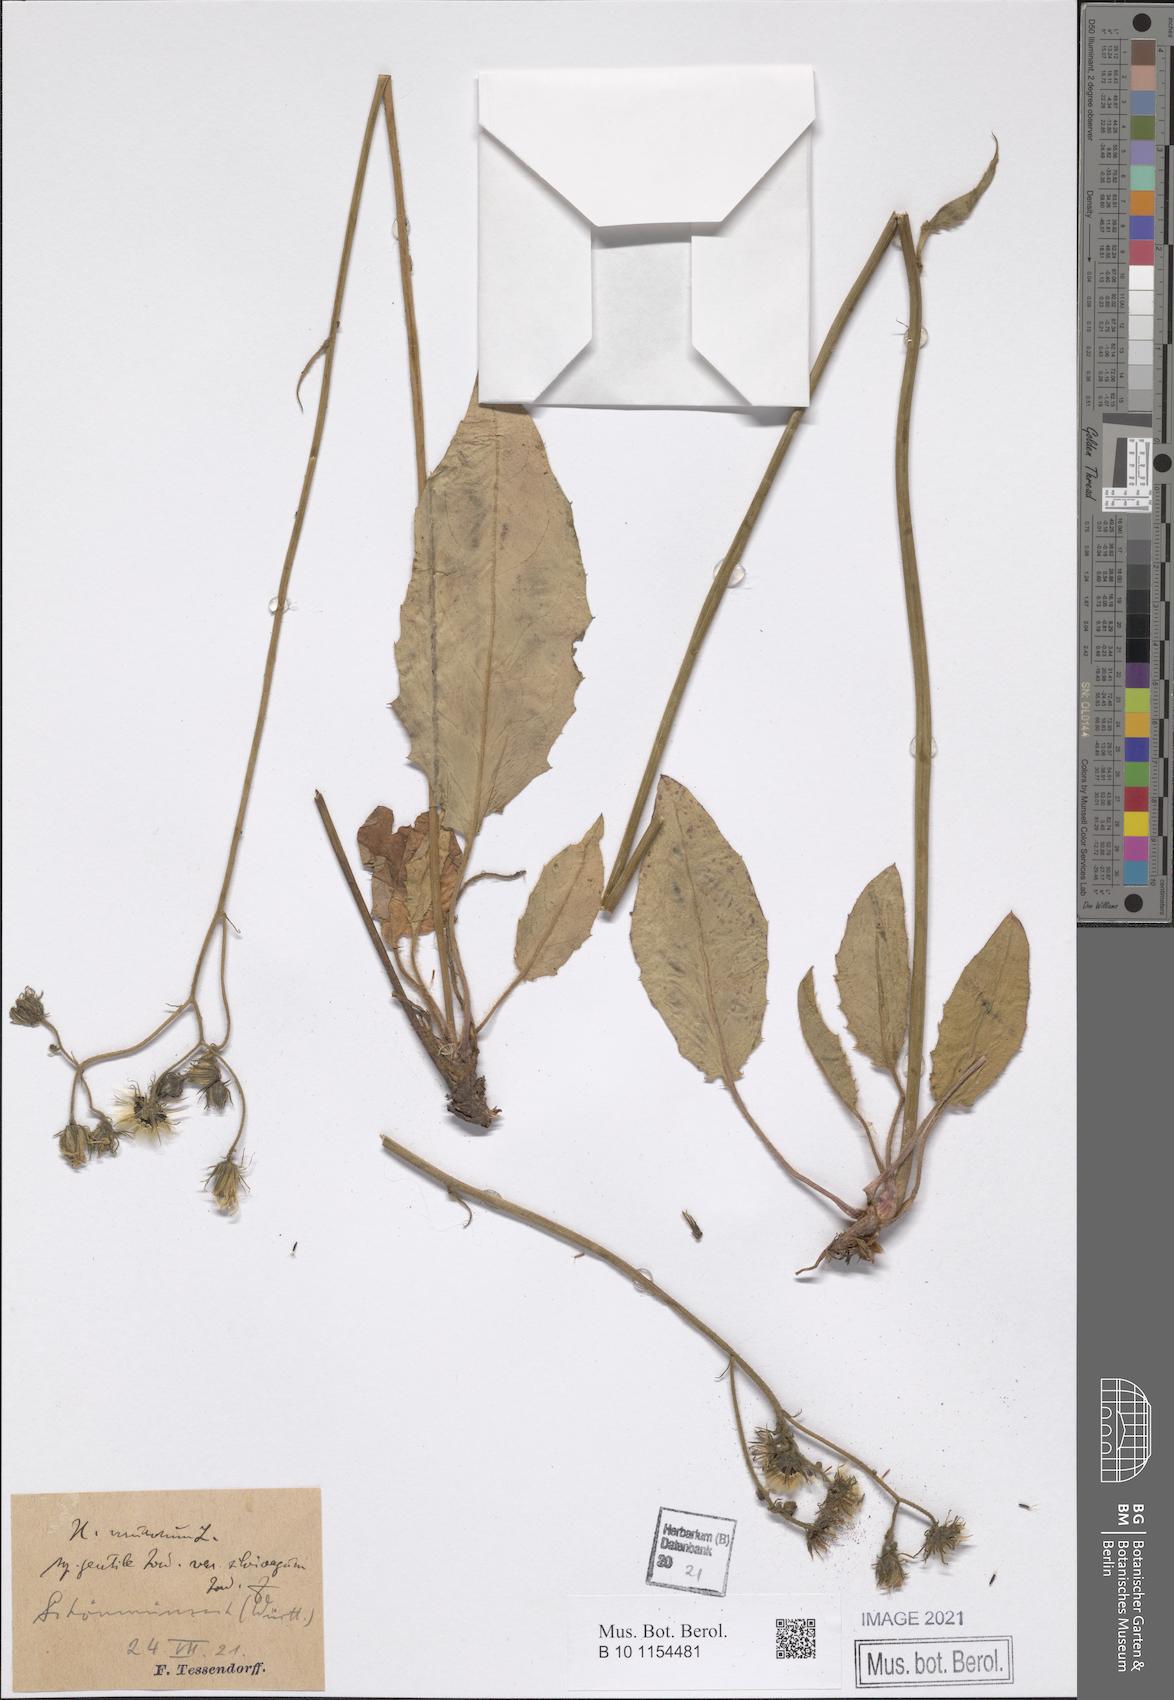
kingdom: Plantae
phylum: Tracheophyta
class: Magnoliopsida
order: Asterales
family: Asteraceae
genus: Hieracium
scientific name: Hieracium murorum
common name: Wall hawkweed
